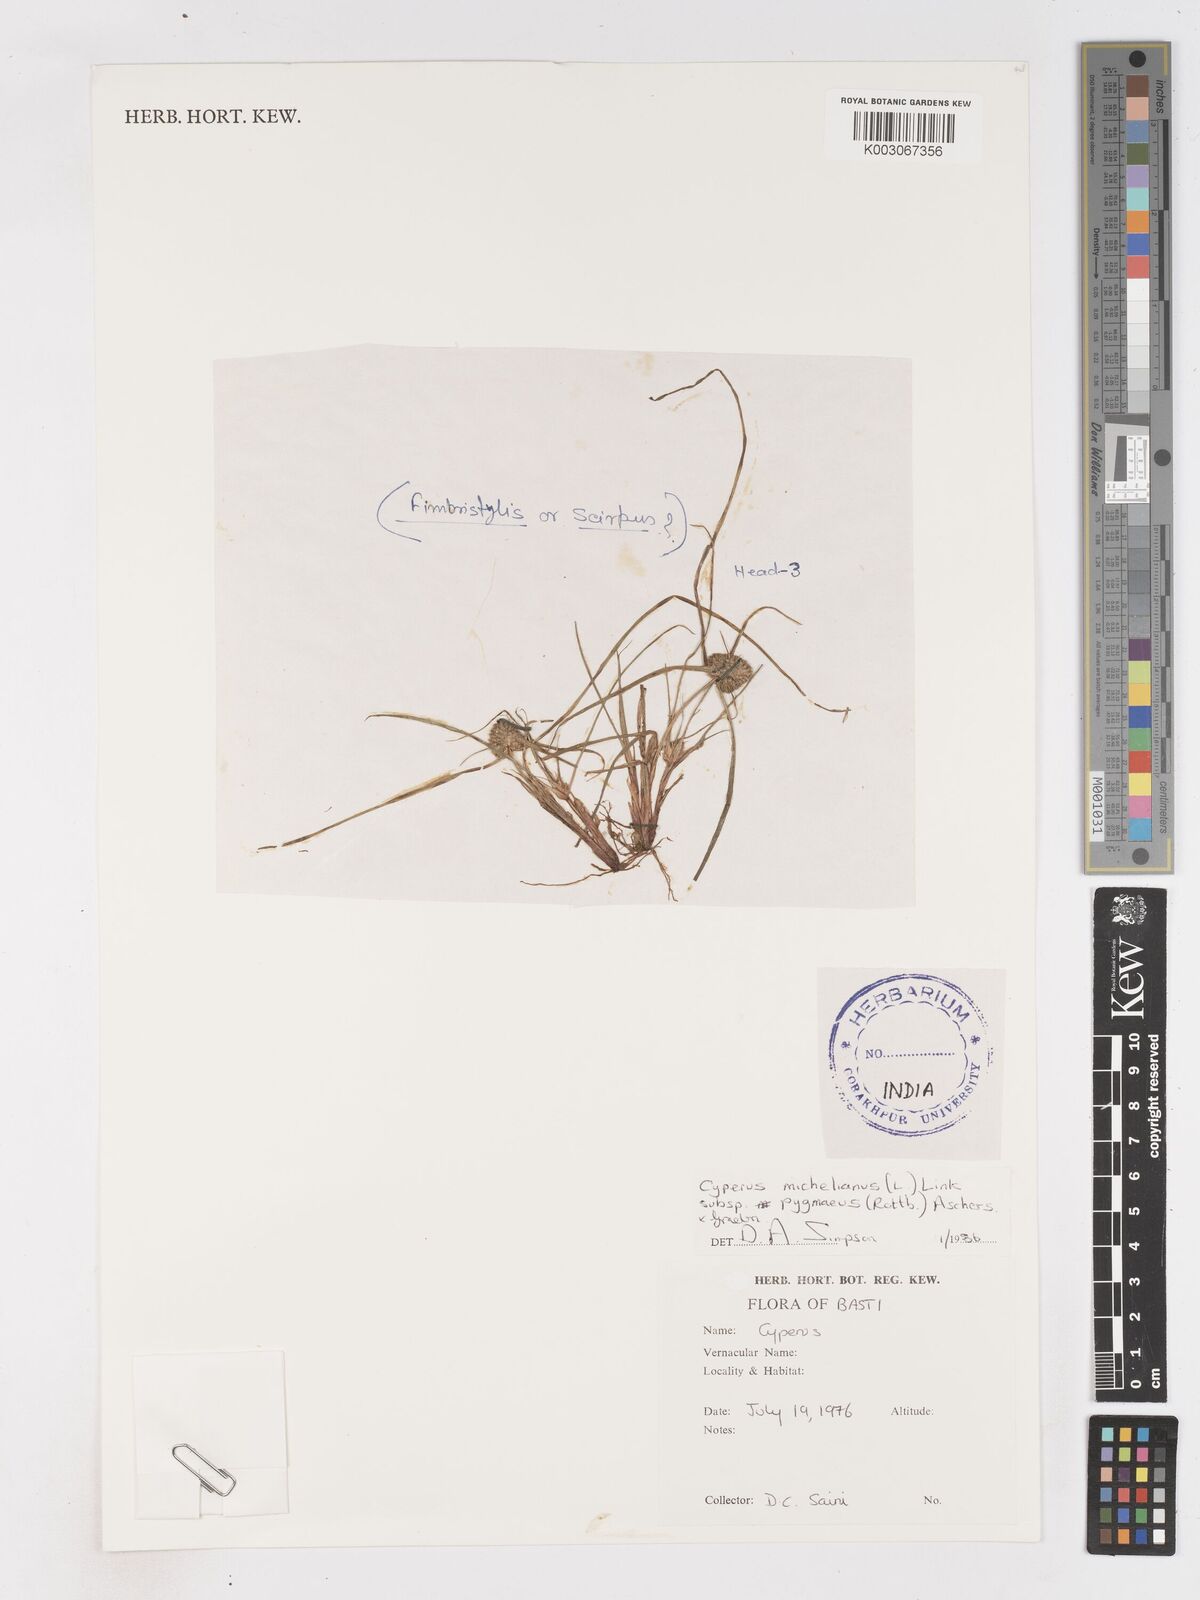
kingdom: Plantae
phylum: Tracheophyta
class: Liliopsida
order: Poales
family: Cyperaceae
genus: Cyperus
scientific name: Cyperus michelianus
